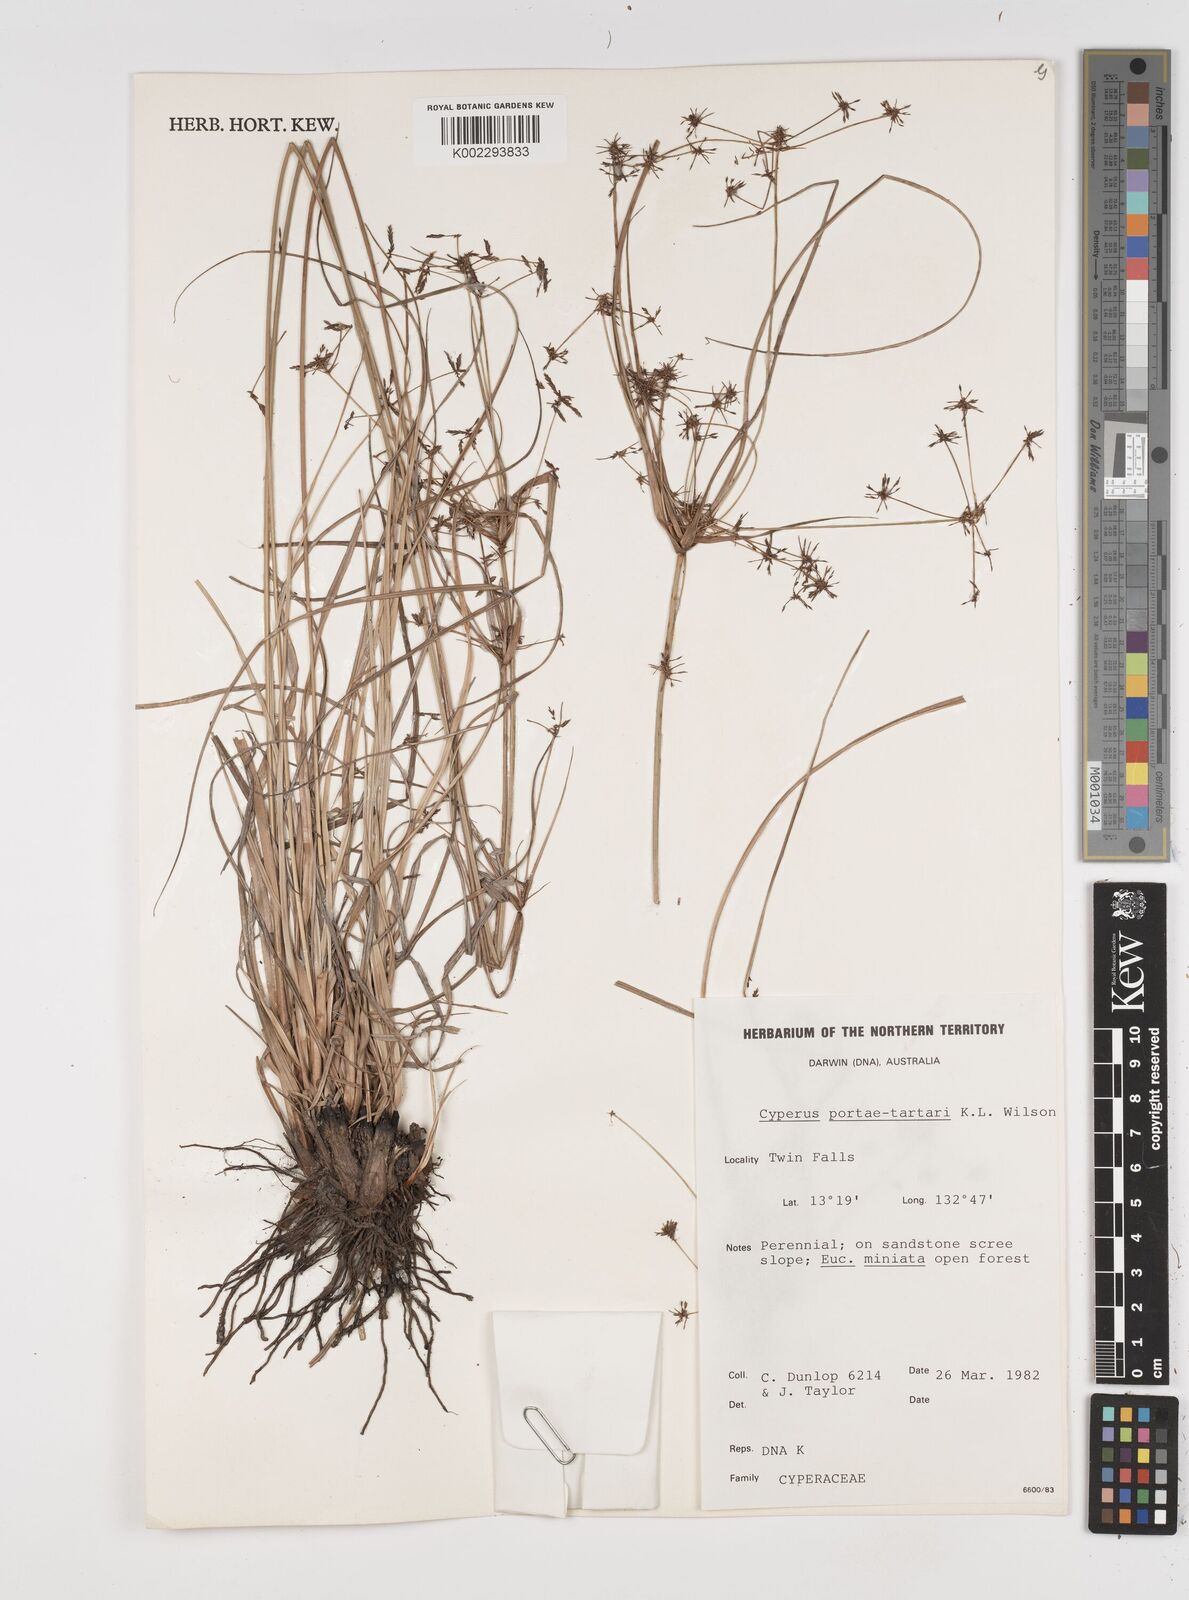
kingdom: Plantae
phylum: Tracheophyta
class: Liliopsida
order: Poales
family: Cyperaceae
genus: Cyperus
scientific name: Cyperus portae-tartari
